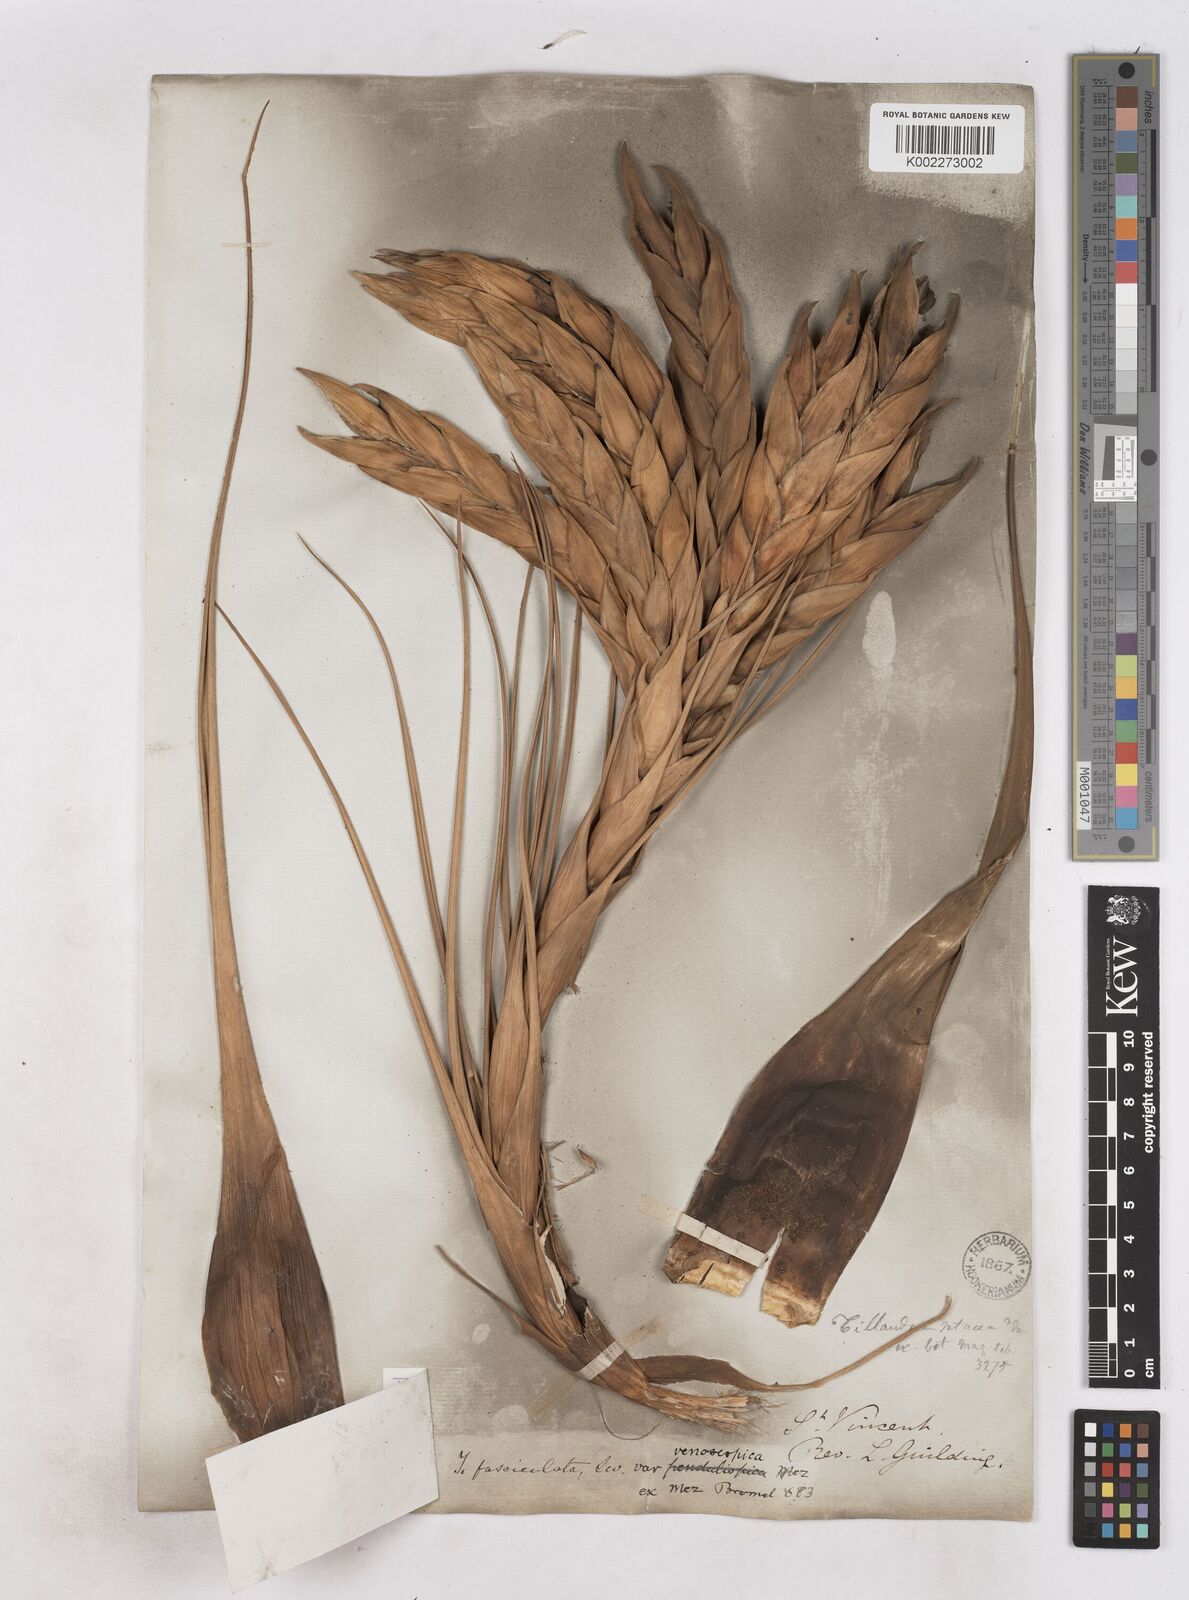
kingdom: Plantae
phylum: Tracheophyta
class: Liliopsida
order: Poales
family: Bromeliaceae
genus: Tillandsia
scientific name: Tillandsia compressa
